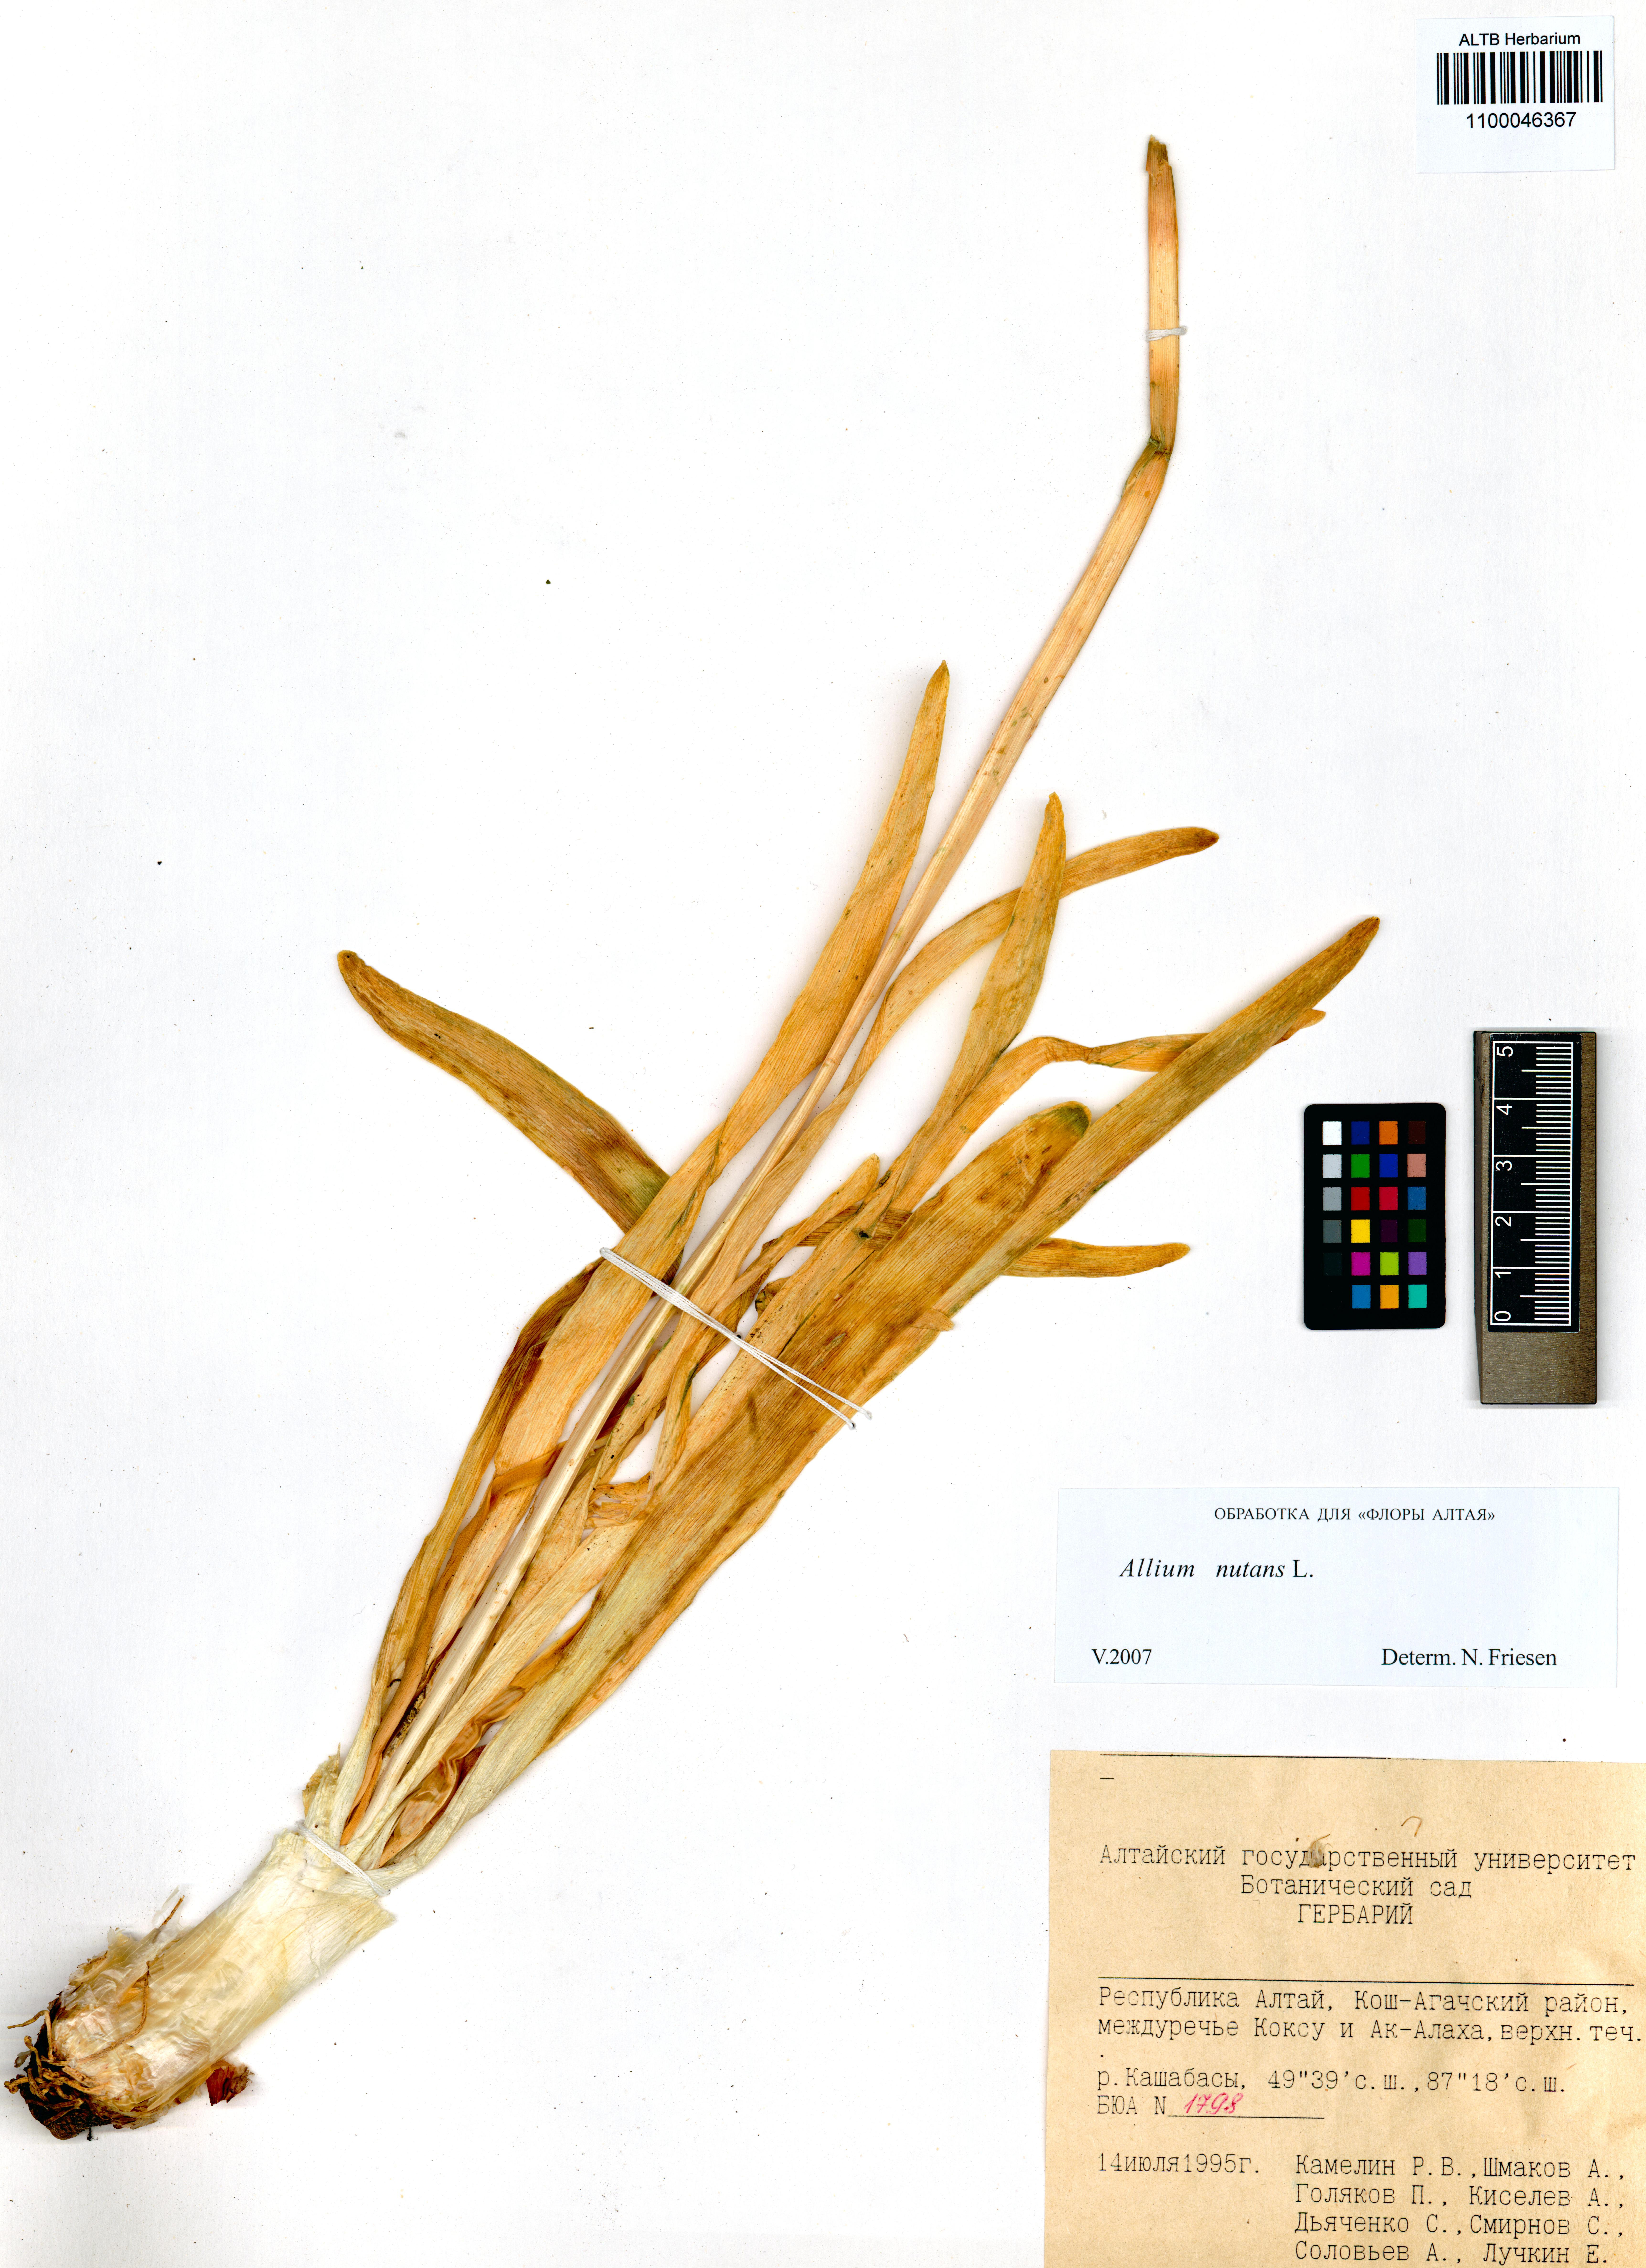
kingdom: Plantae
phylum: Tracheophyta
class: Liliopsida
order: Asparagales
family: Amaryllidaceae
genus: Allium
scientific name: Allium nutans
